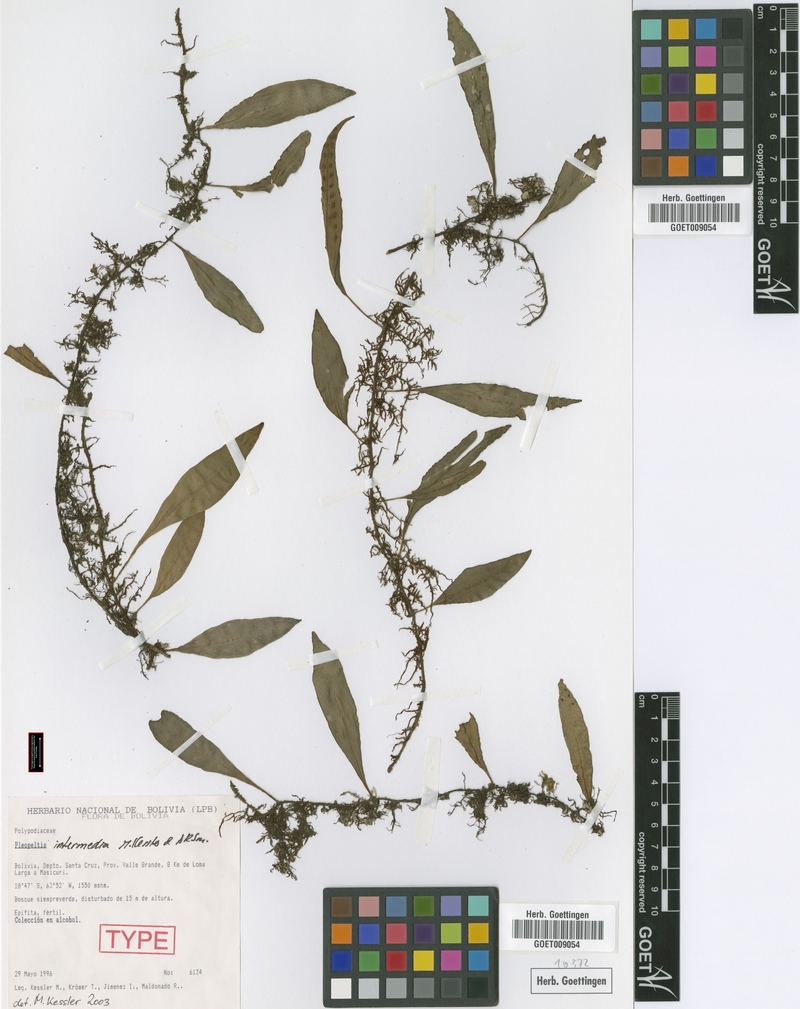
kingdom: Plantae
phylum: Tracheophyta
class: Polypodiopsida
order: Polypodiales
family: Polypodiaceae
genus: Pleopeltis
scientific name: Pleopeltis intermedia
